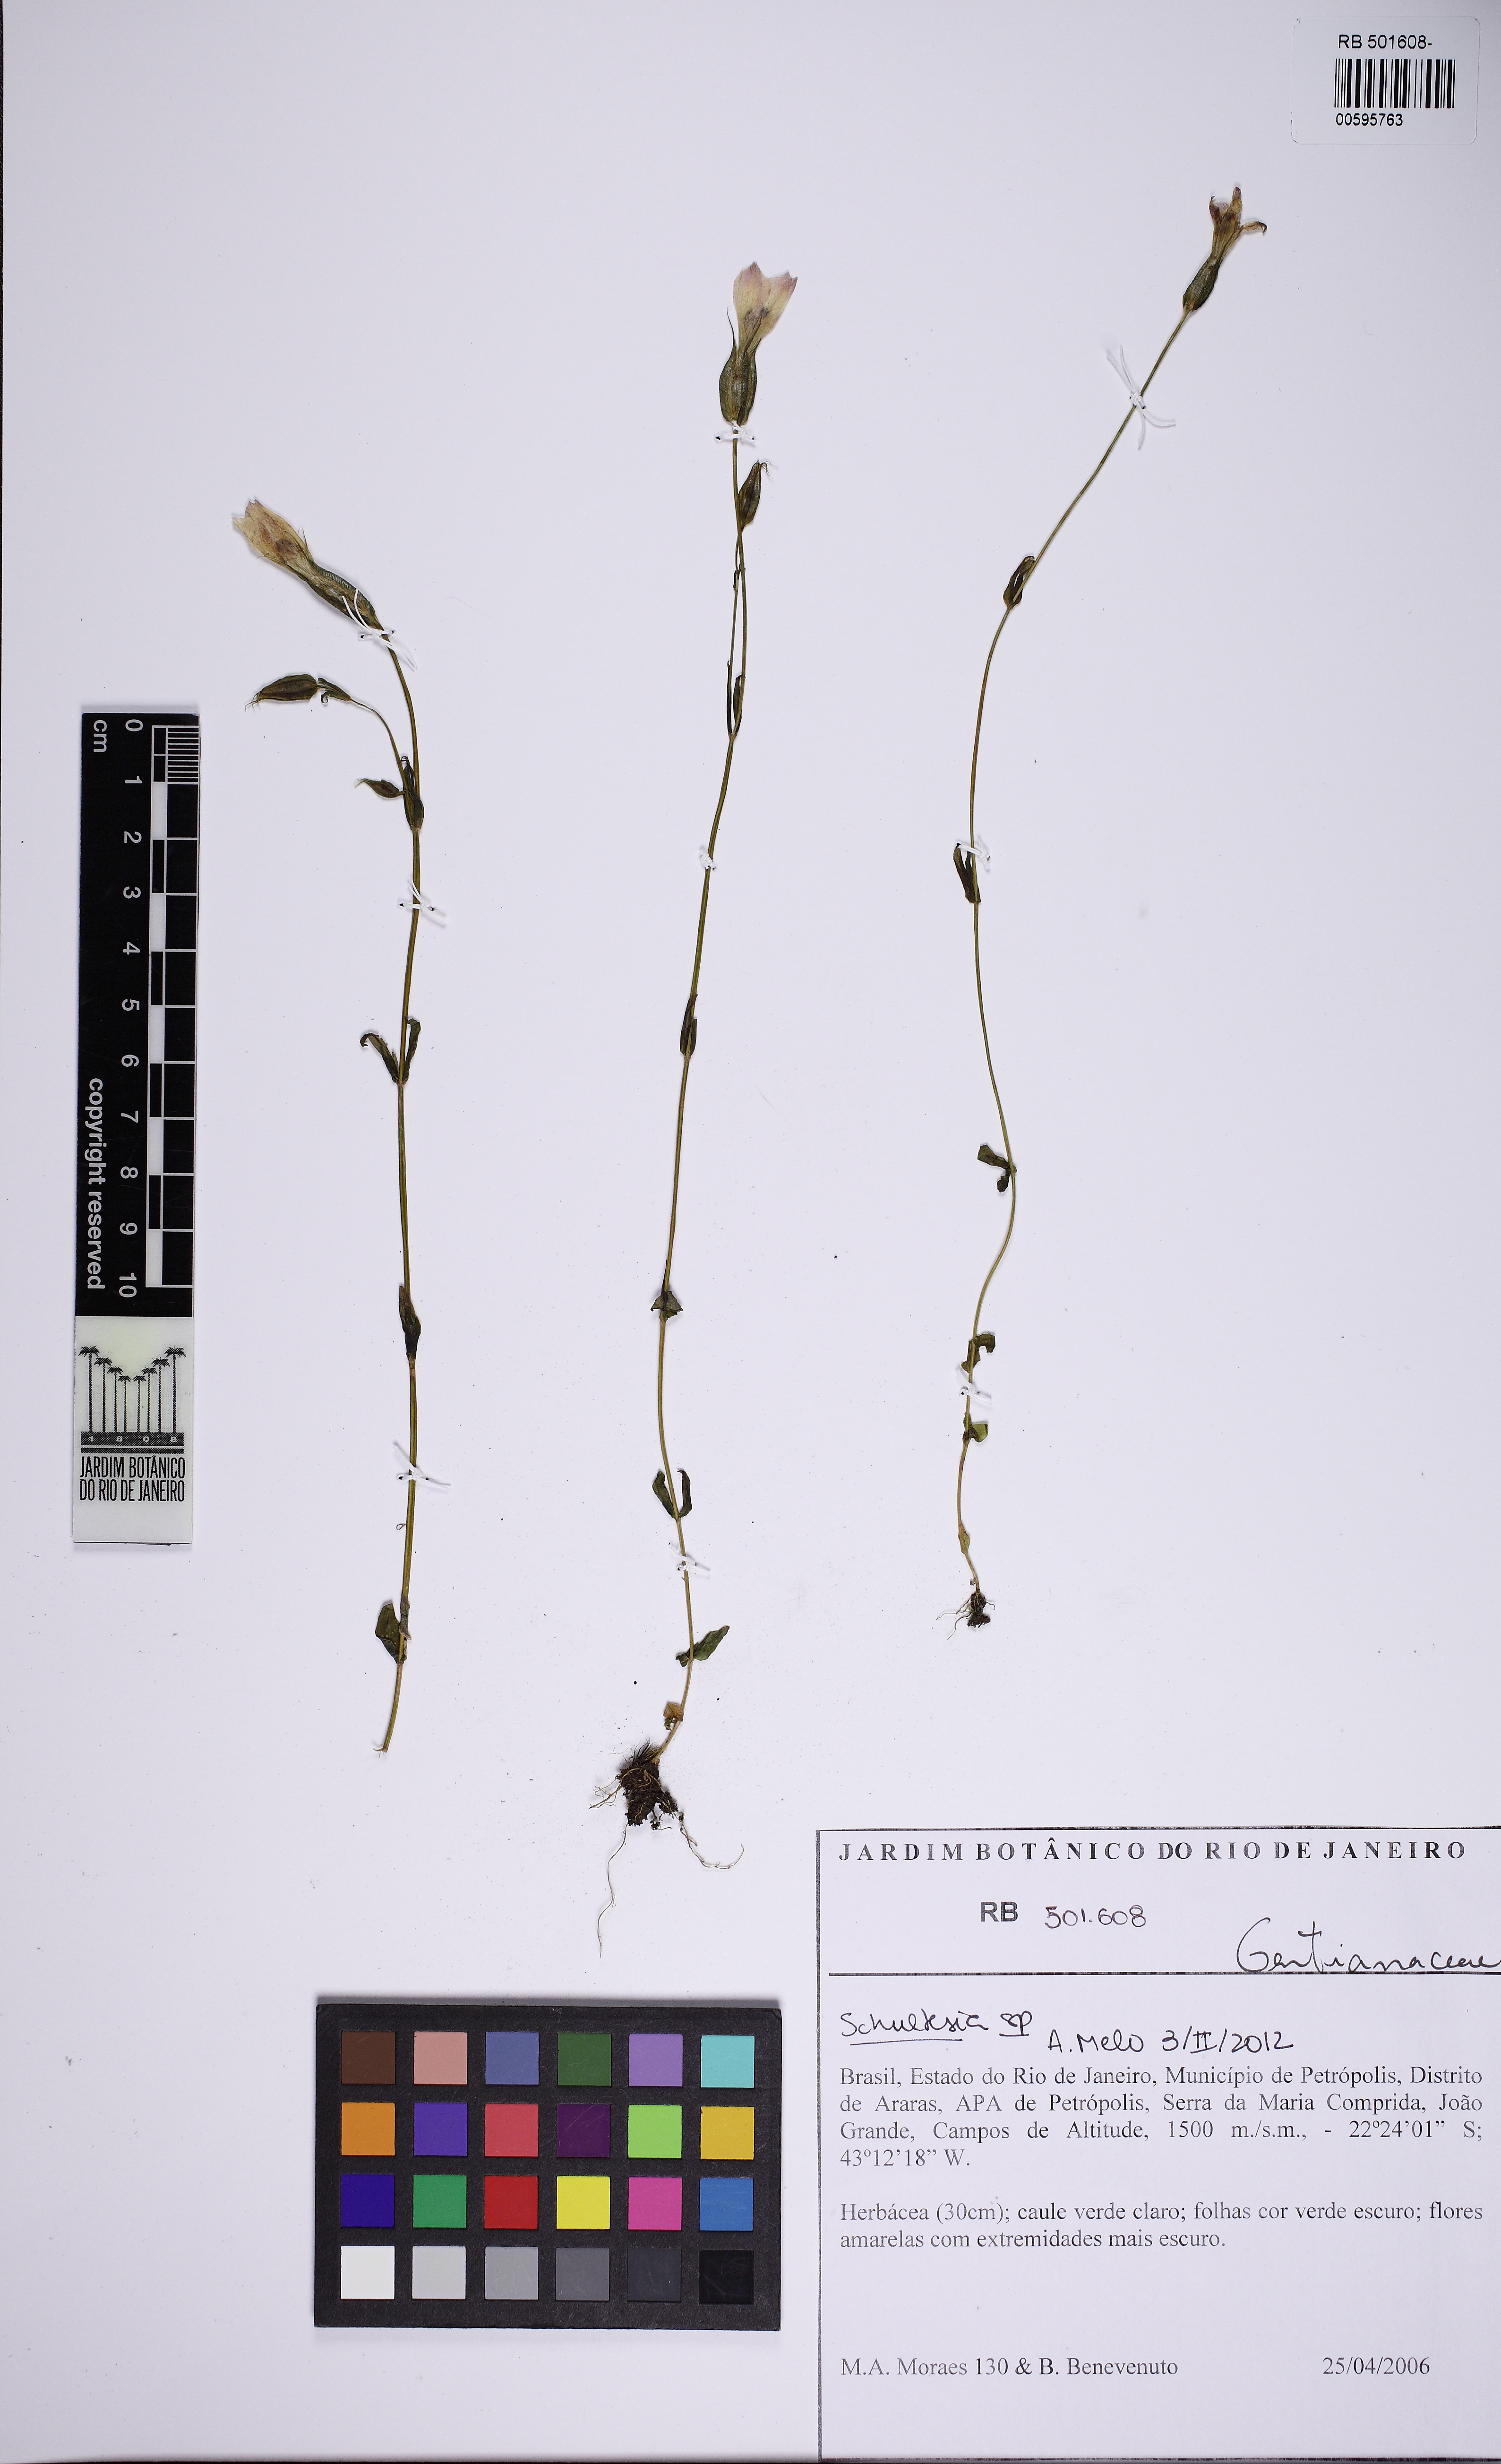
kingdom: Plantae
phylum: Tracheophyta
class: Magnoliopsida
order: Gentianales
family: Gentianaceae
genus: Schultesia
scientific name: Schultesia
